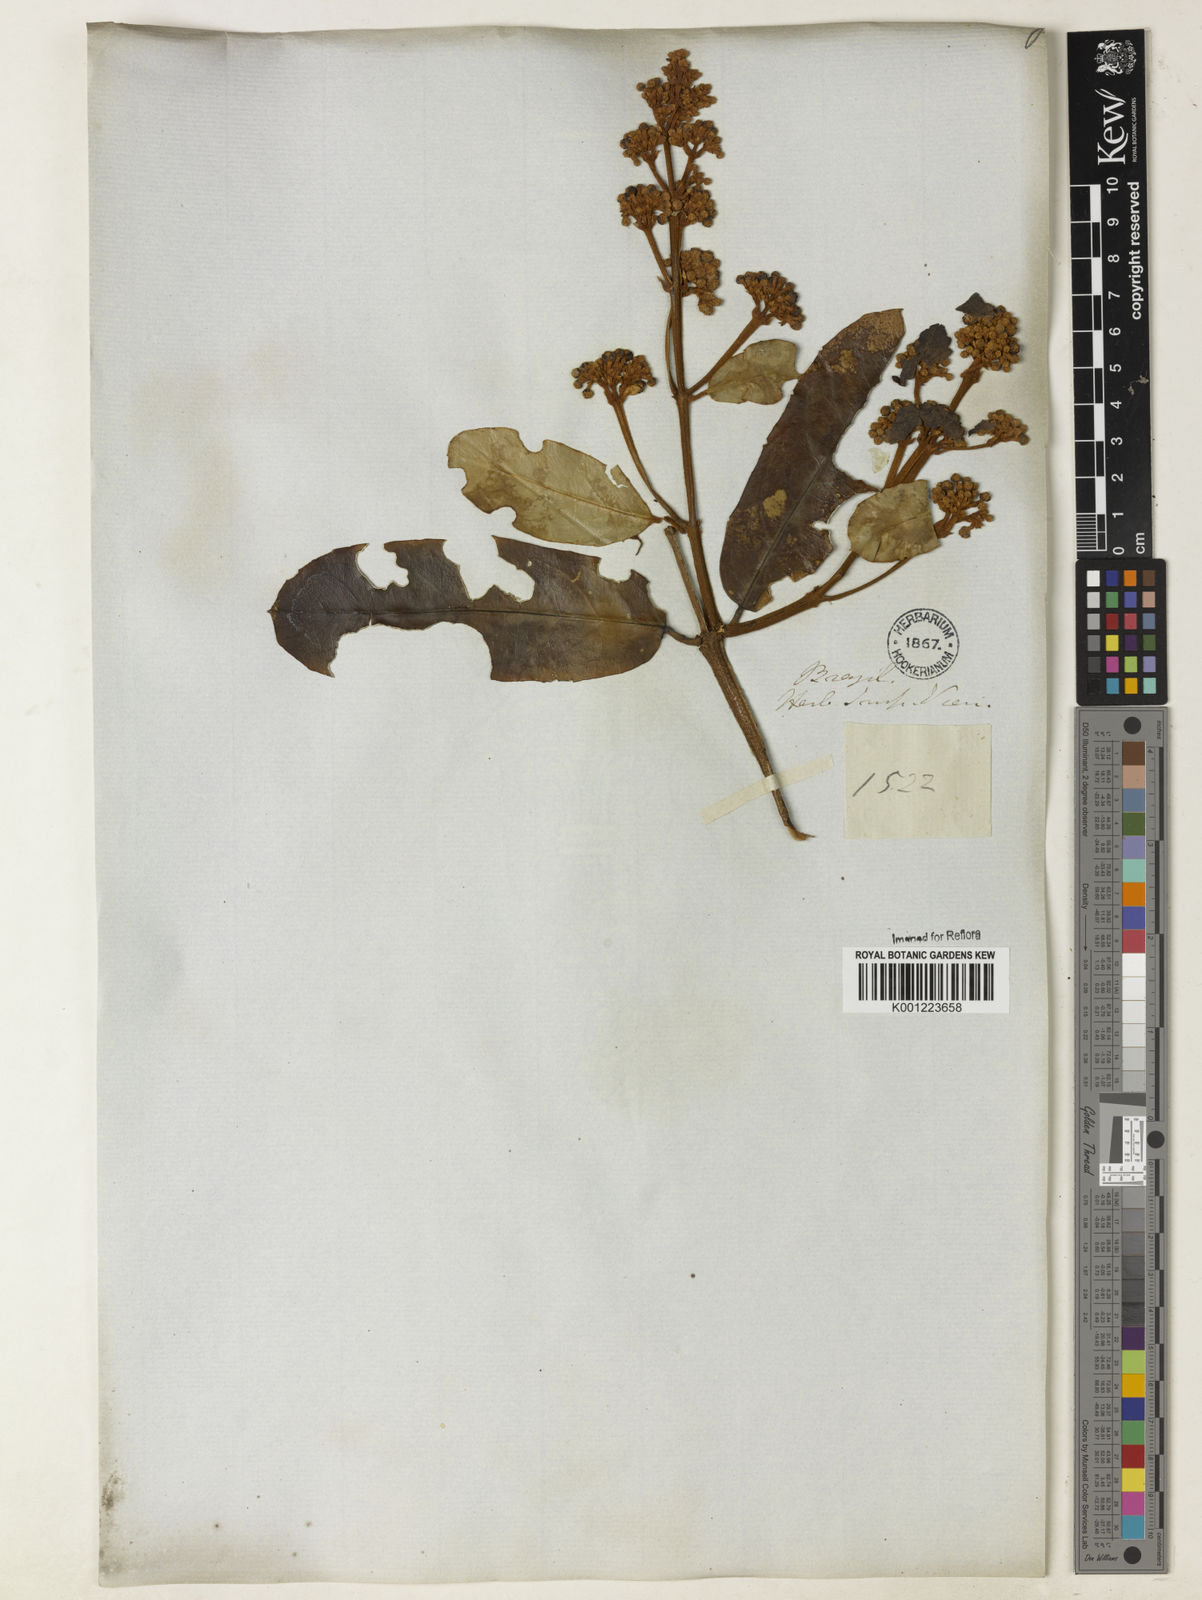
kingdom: Plantae
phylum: Tracheophyta
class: Magnoliopsida
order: Malpighiales
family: Malpighiaceae
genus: Heteropterys
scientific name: Heteropterys sericea
